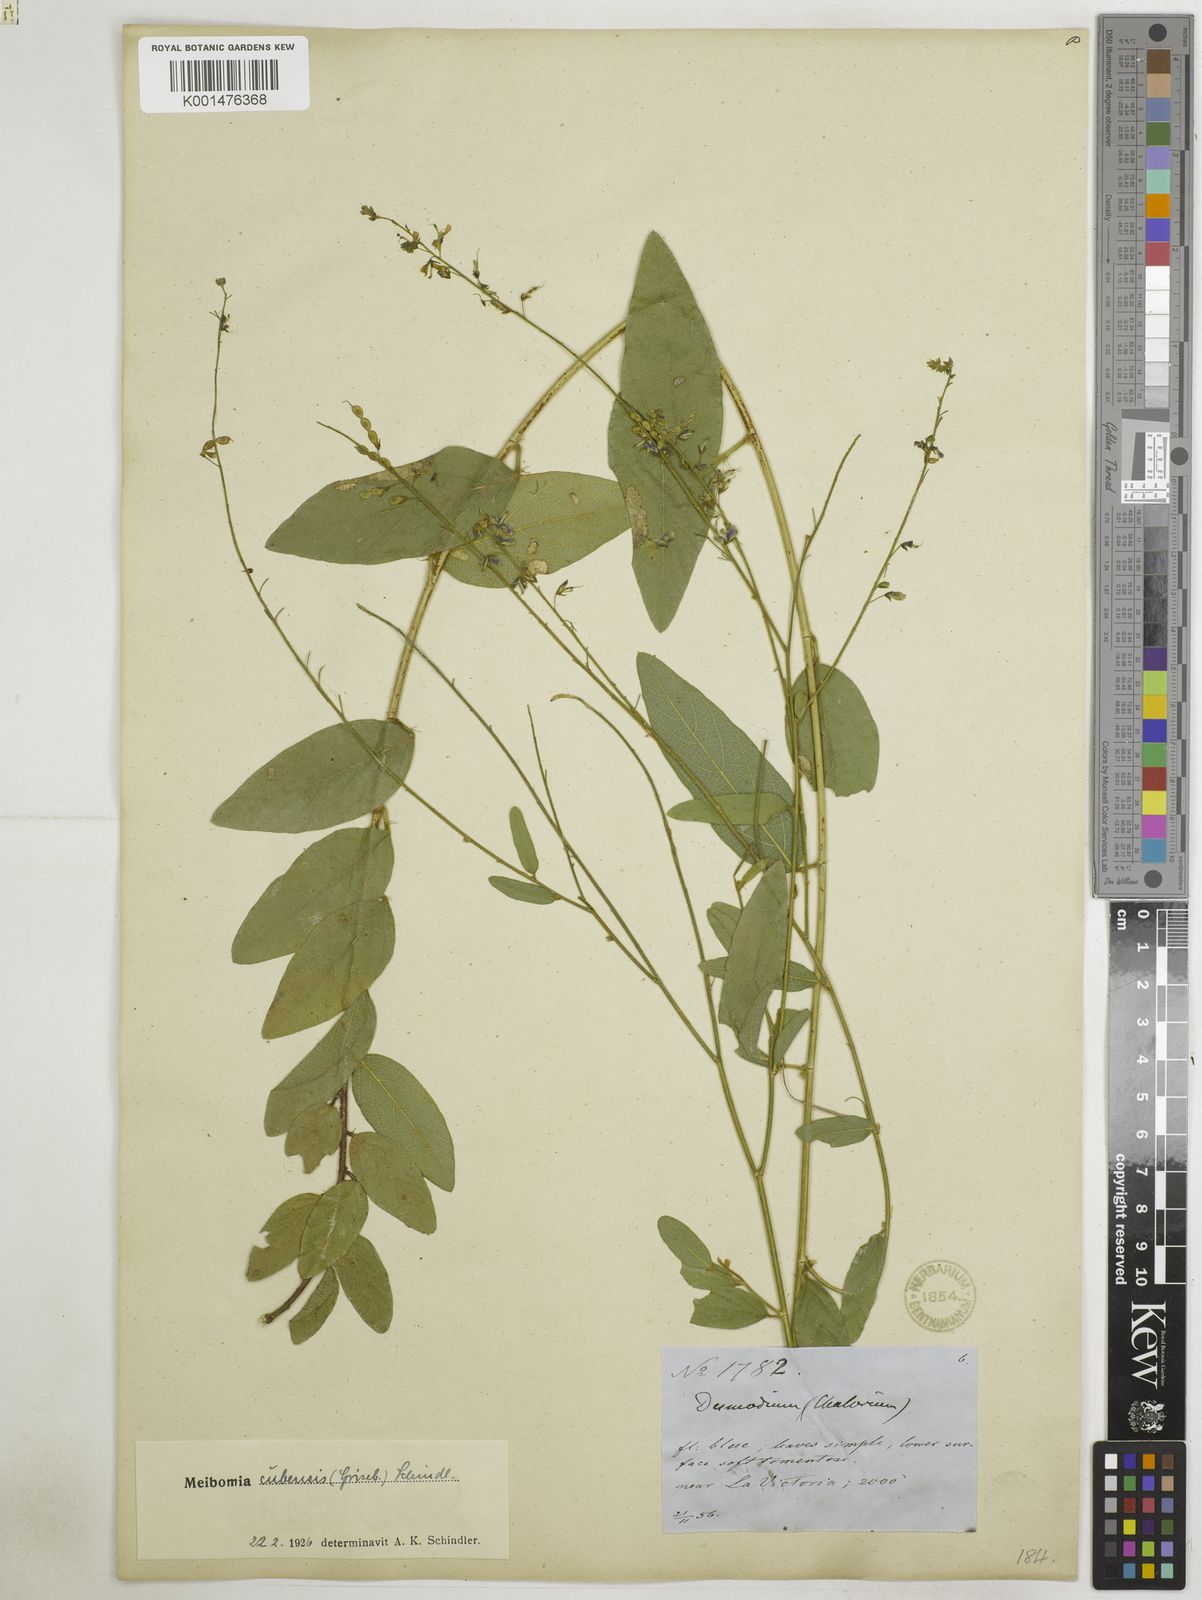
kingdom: Plantae
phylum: Tracheophyta
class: Magnoliopsida
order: Fabales
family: Fabaceae
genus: Desmodium
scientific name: Desmodium
